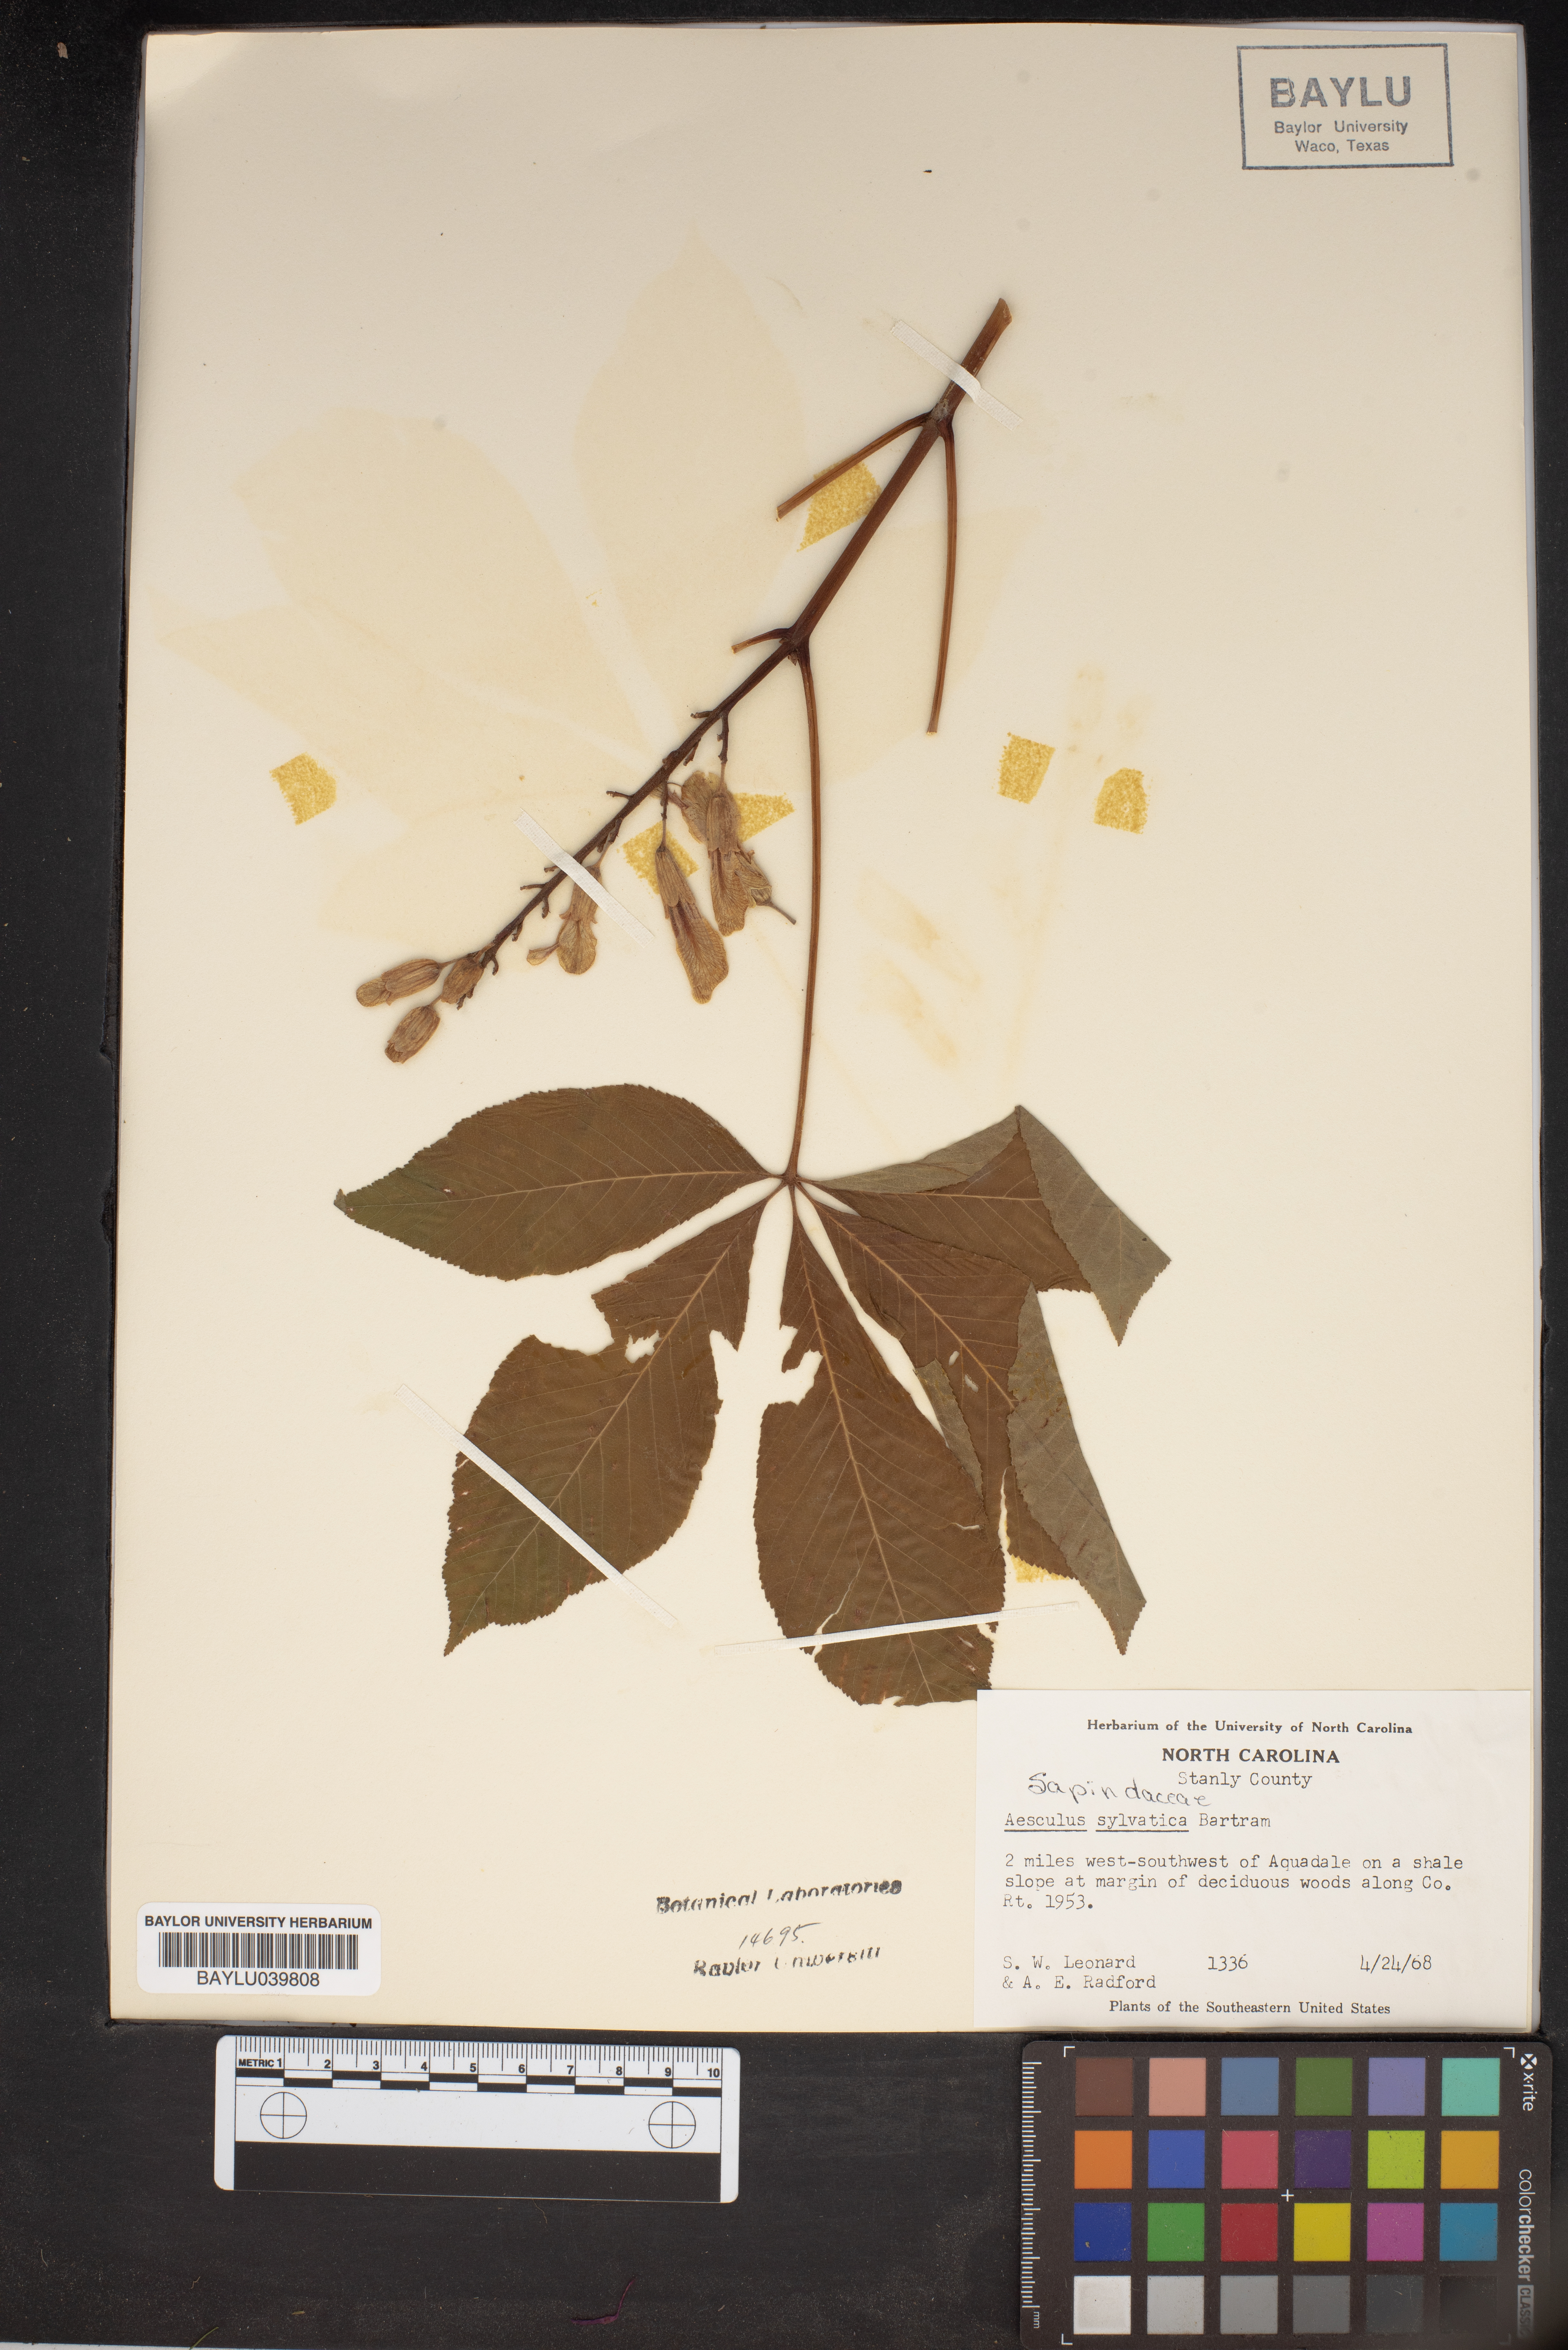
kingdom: Plantae
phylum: Tracheophyta
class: Magnoliopsida
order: Sapindales
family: Sapindaceae
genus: Aesculus
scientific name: Aesculus sylvatica
